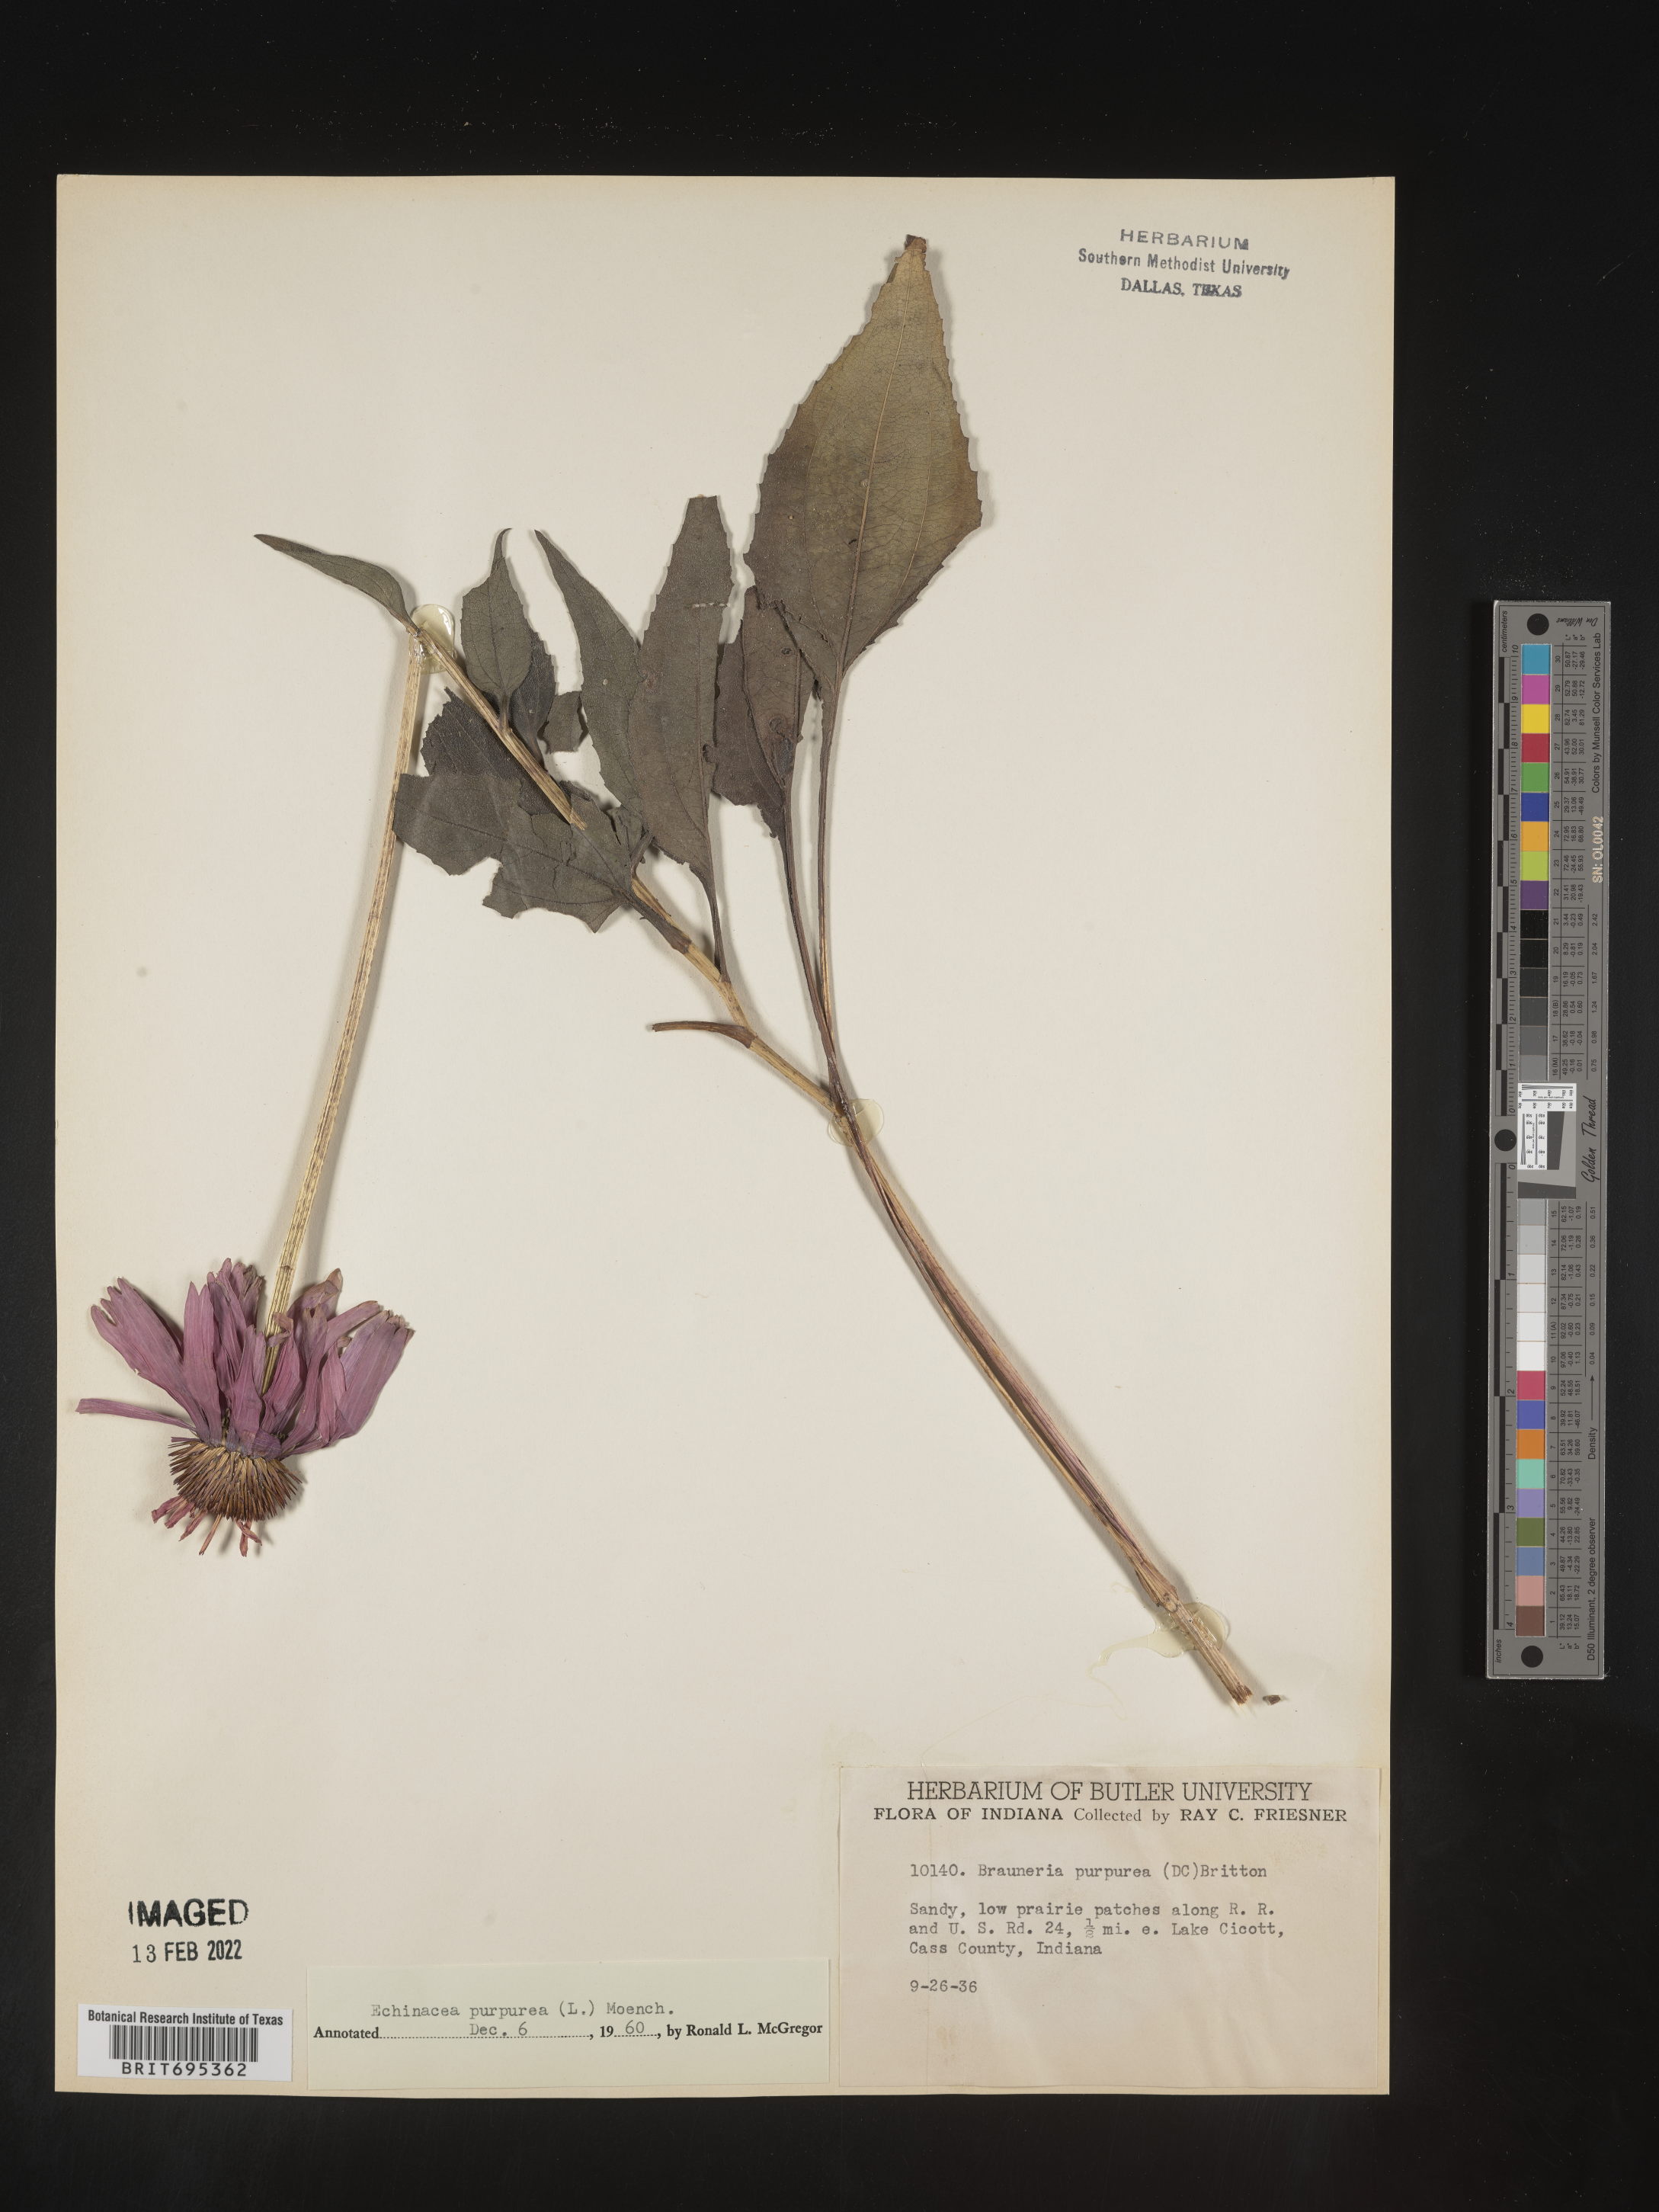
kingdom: Plantae
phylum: Tracheophyta
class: Magnoliopsida
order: Asterales
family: Asteraceae
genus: Echinacea
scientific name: Echinacea purpurea
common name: Broad-leaved purple coneflower
